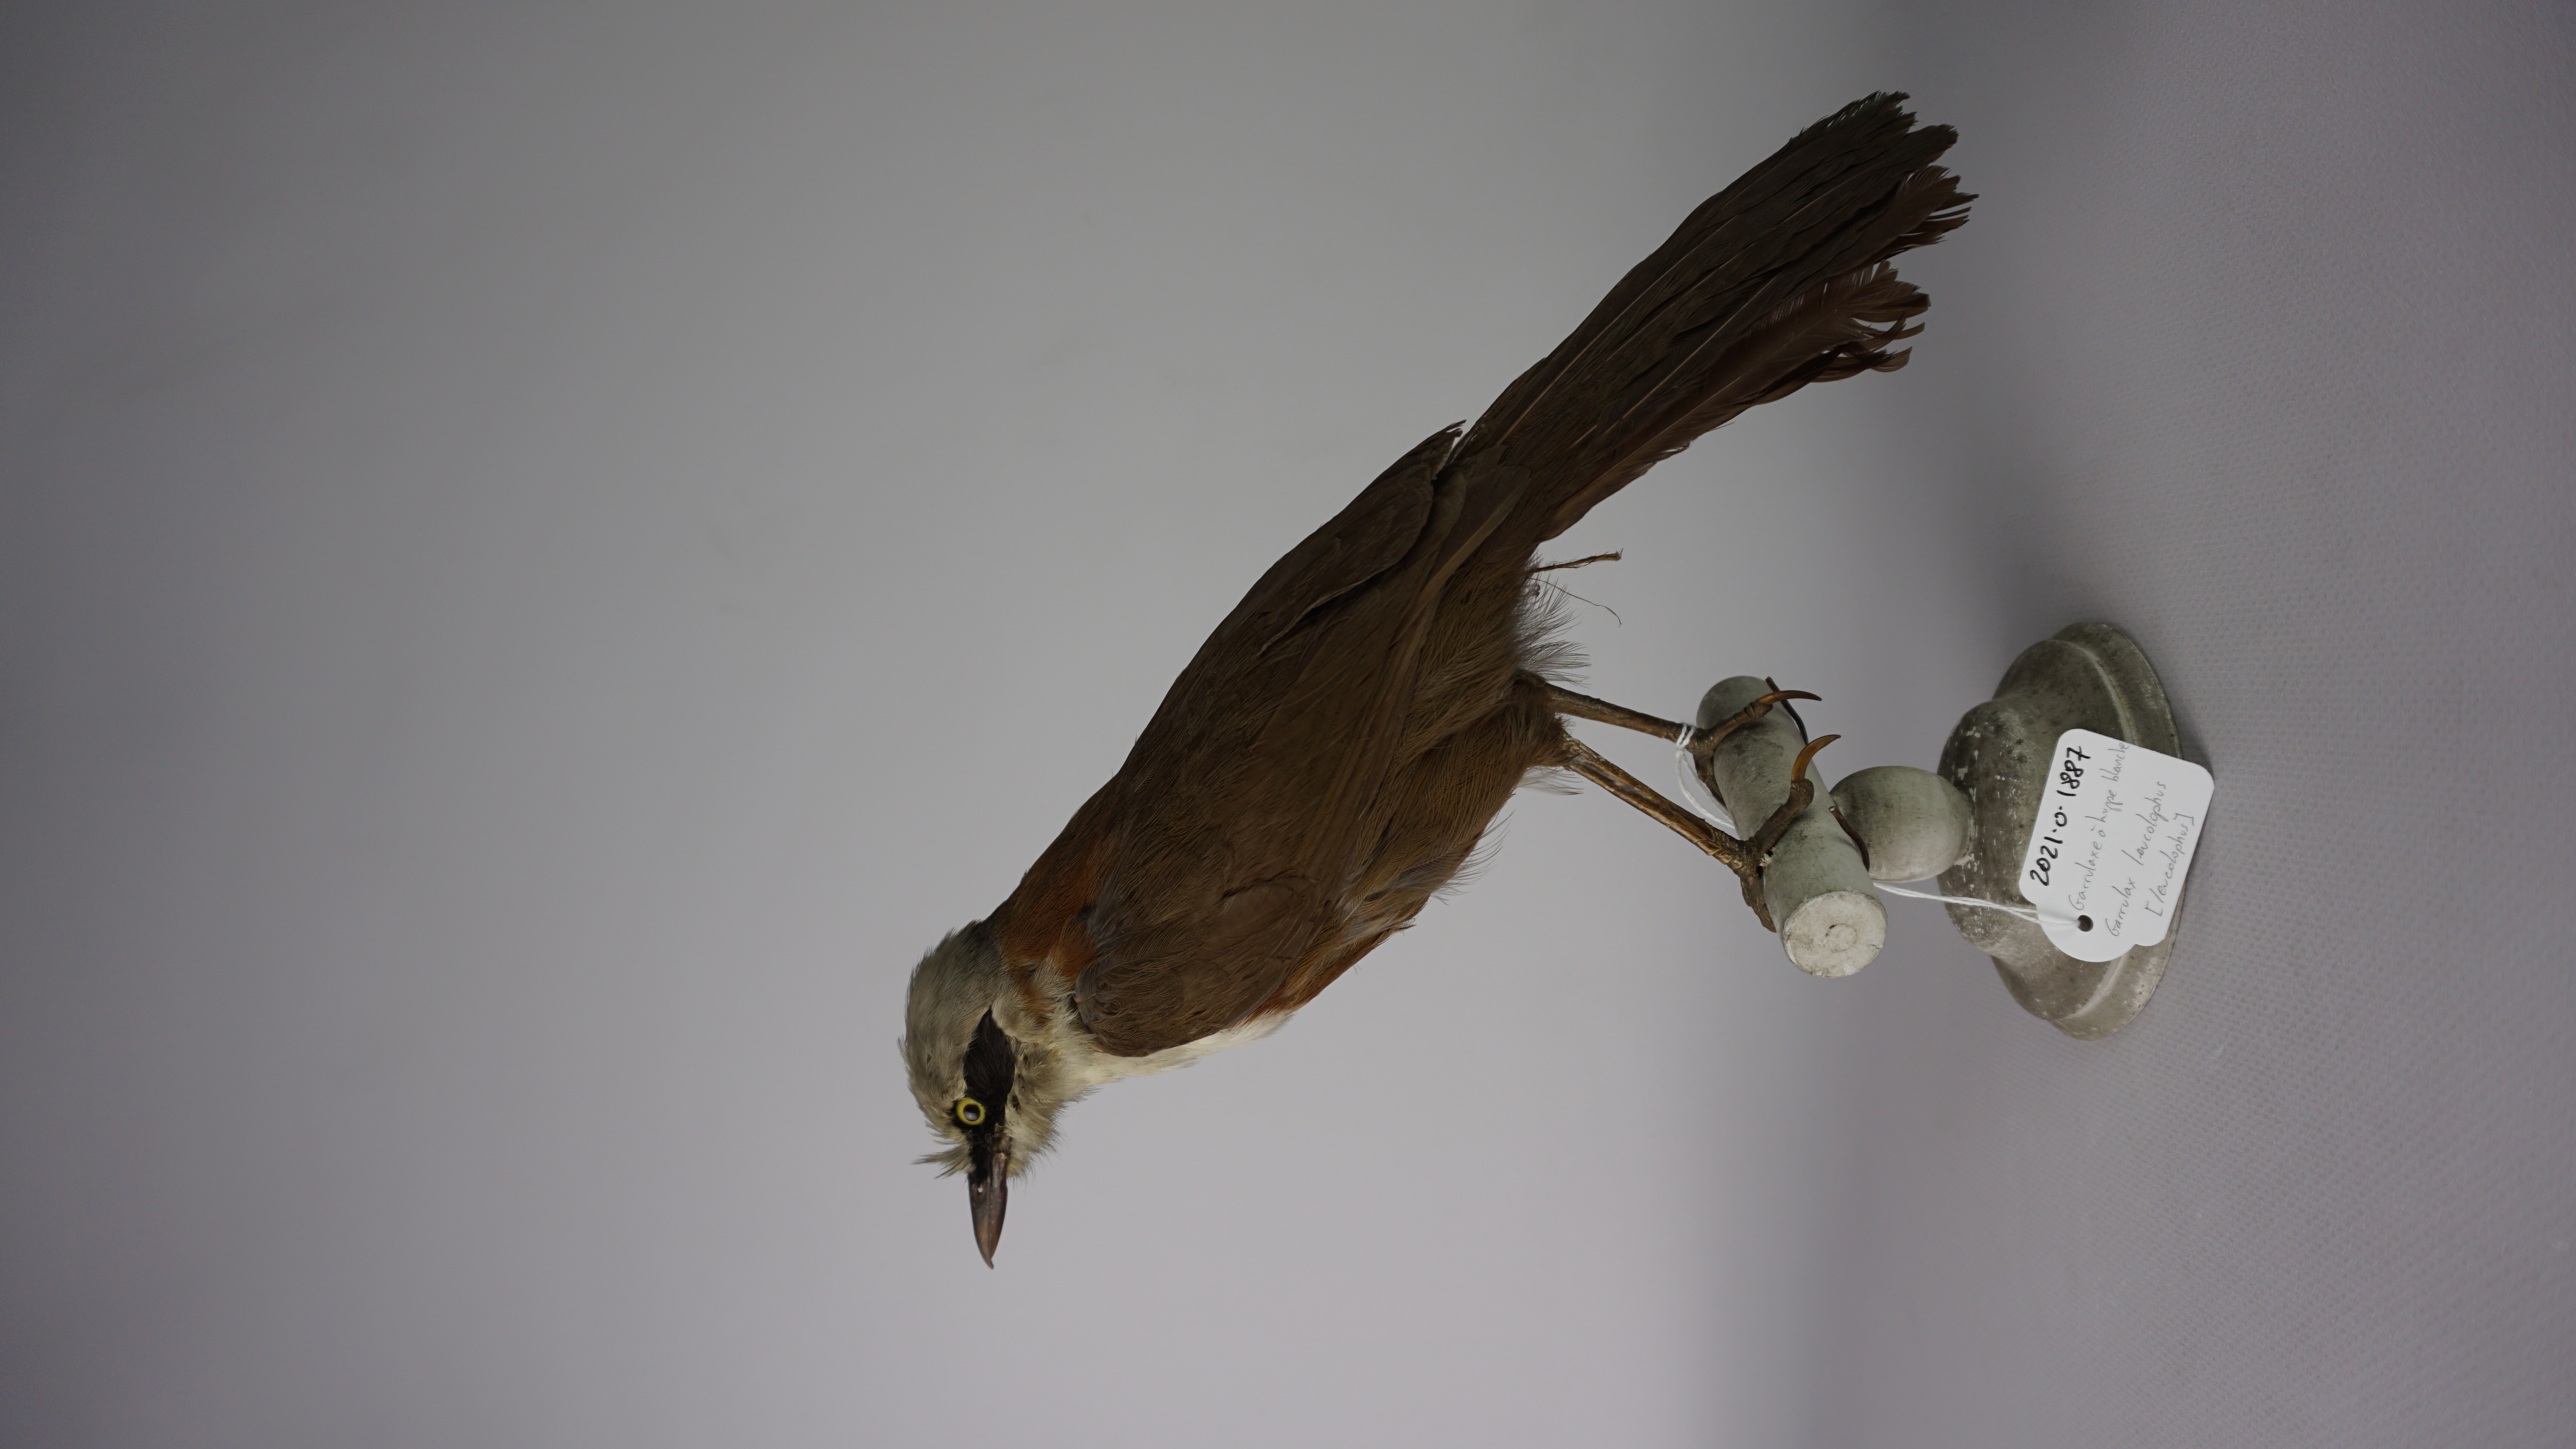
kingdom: Animalia
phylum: Chordata
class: Aves
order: Passeriformes
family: Leiothrichidae
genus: Garrulax
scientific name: Garrulax leucolophus
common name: White-crested laughingthrush
